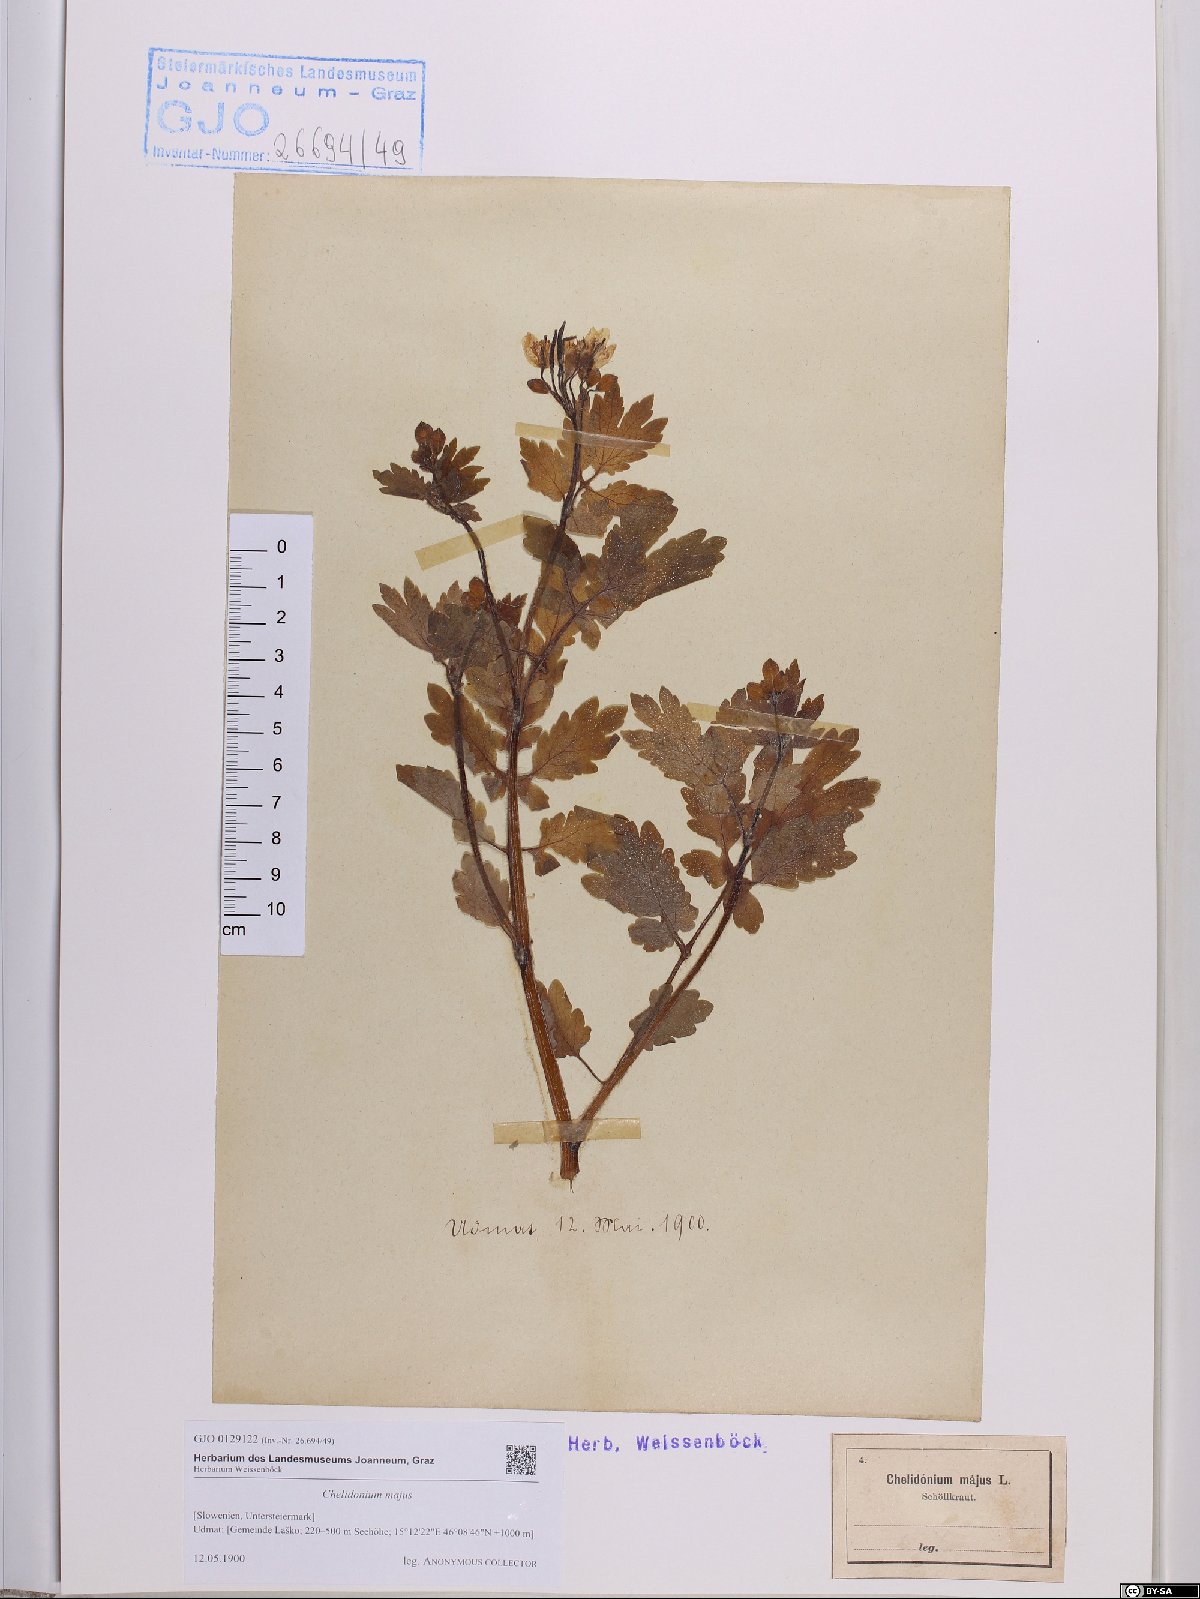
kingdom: Plantae
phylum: Tracheophyta
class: Magnoliopsida
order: Ranunculales
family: Papaveraceae
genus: Chelidonium
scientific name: Chelidonium majus
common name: Greater celandine
